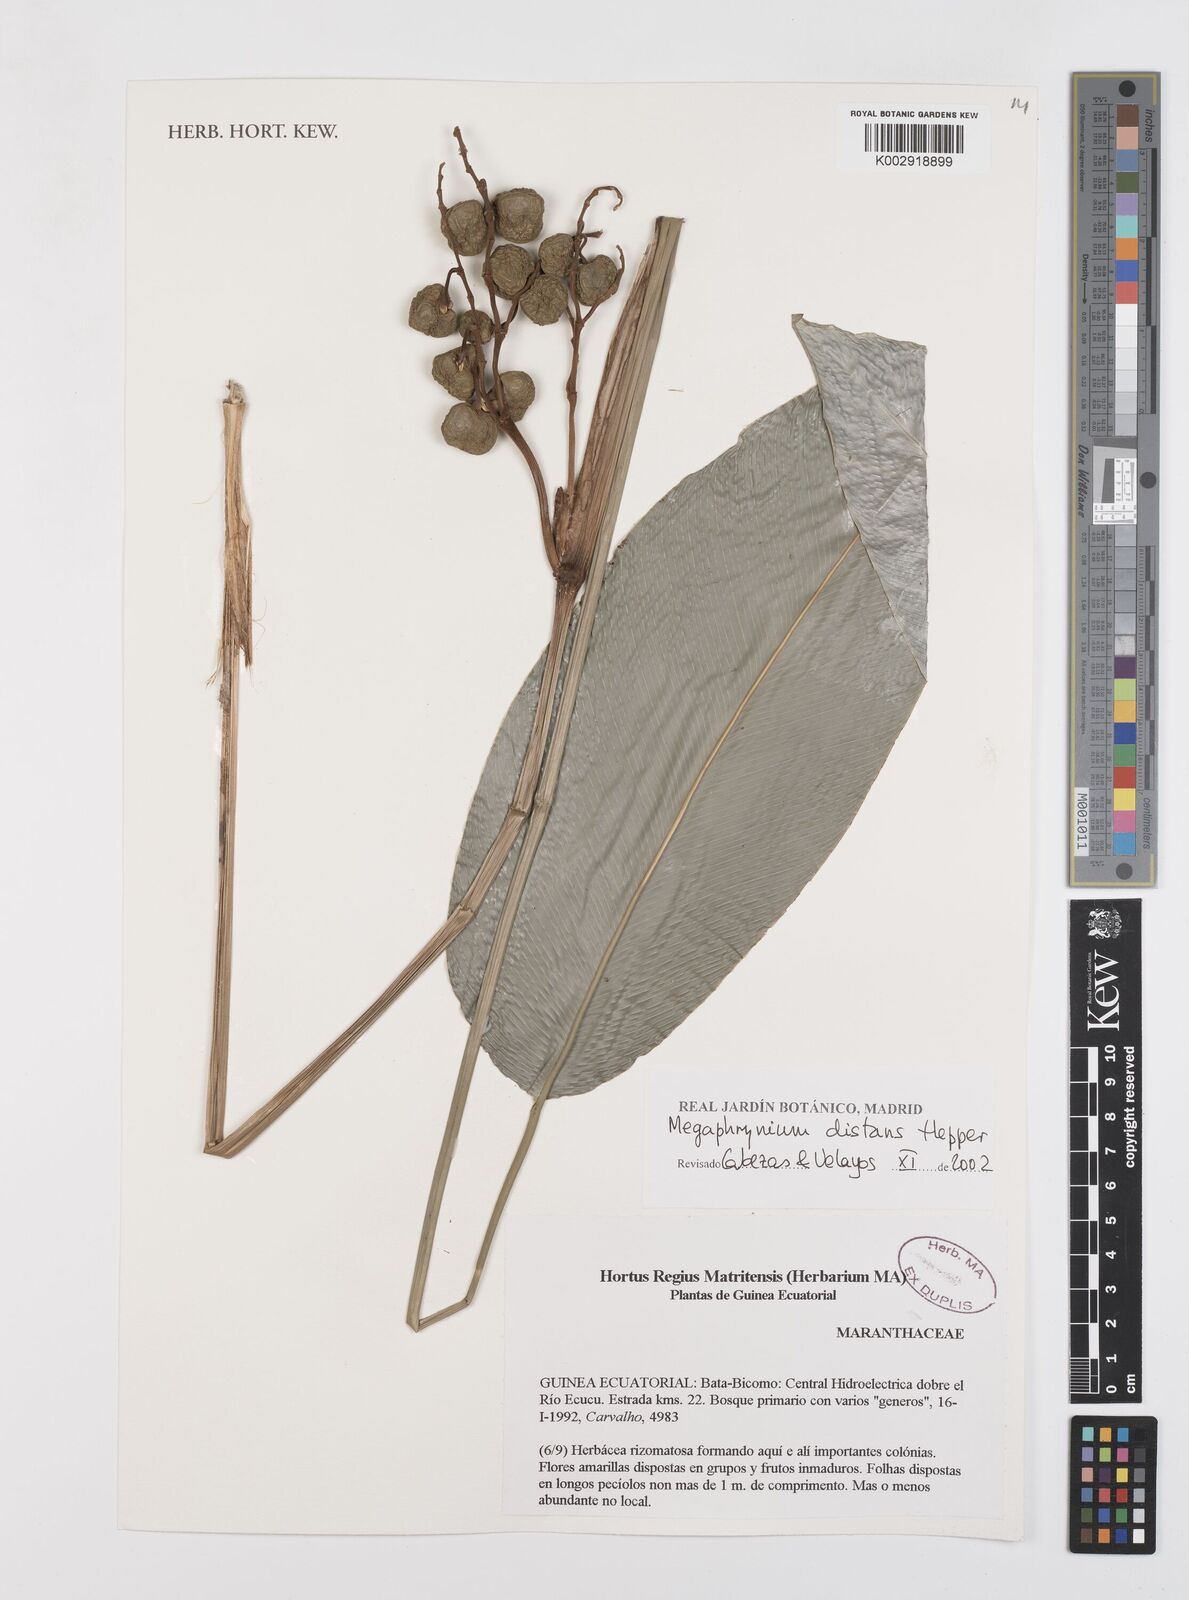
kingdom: Plantae
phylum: Tracheophyta
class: Liliopsida
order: Zingiberales
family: Marantaceae
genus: Megaphrynium
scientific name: Megaphrynium distans
